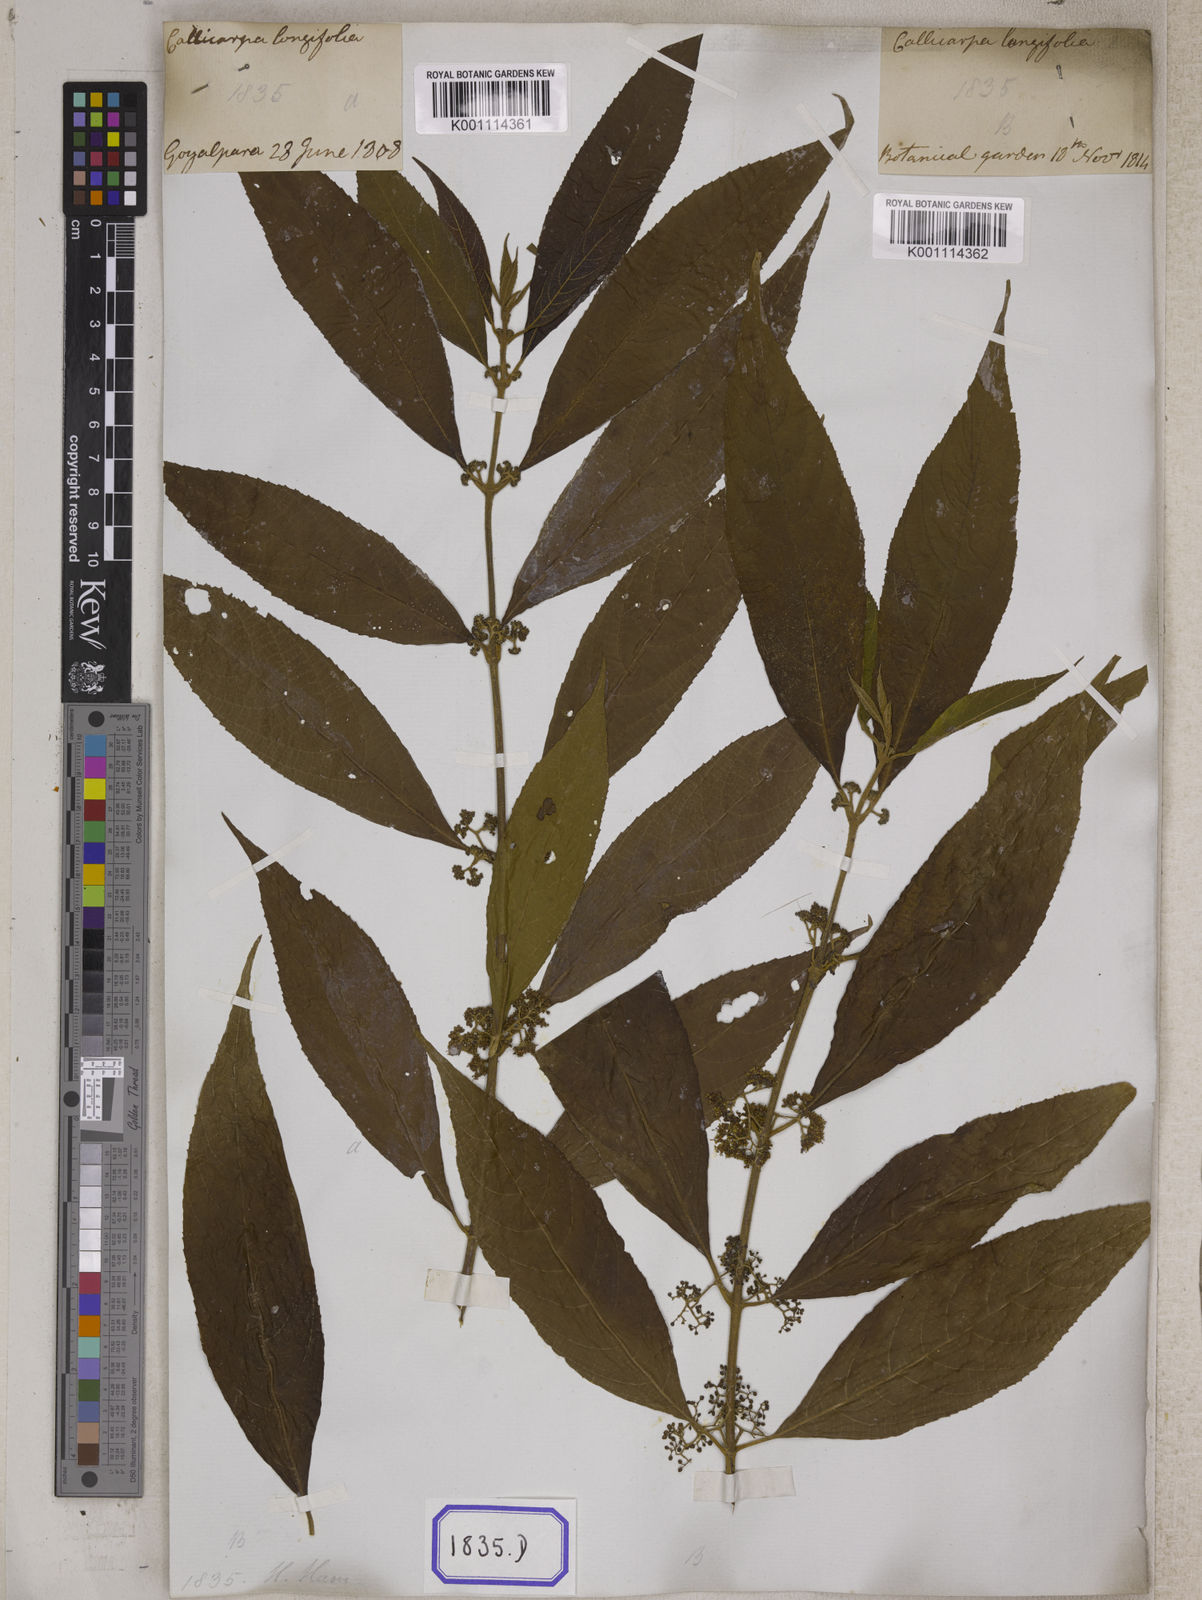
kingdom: Plantae
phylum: Tracheophyta
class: Magnoliopsida
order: Lamiales
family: Lamiaceae
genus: Callicarpa
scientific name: Callicarpa longifolia
